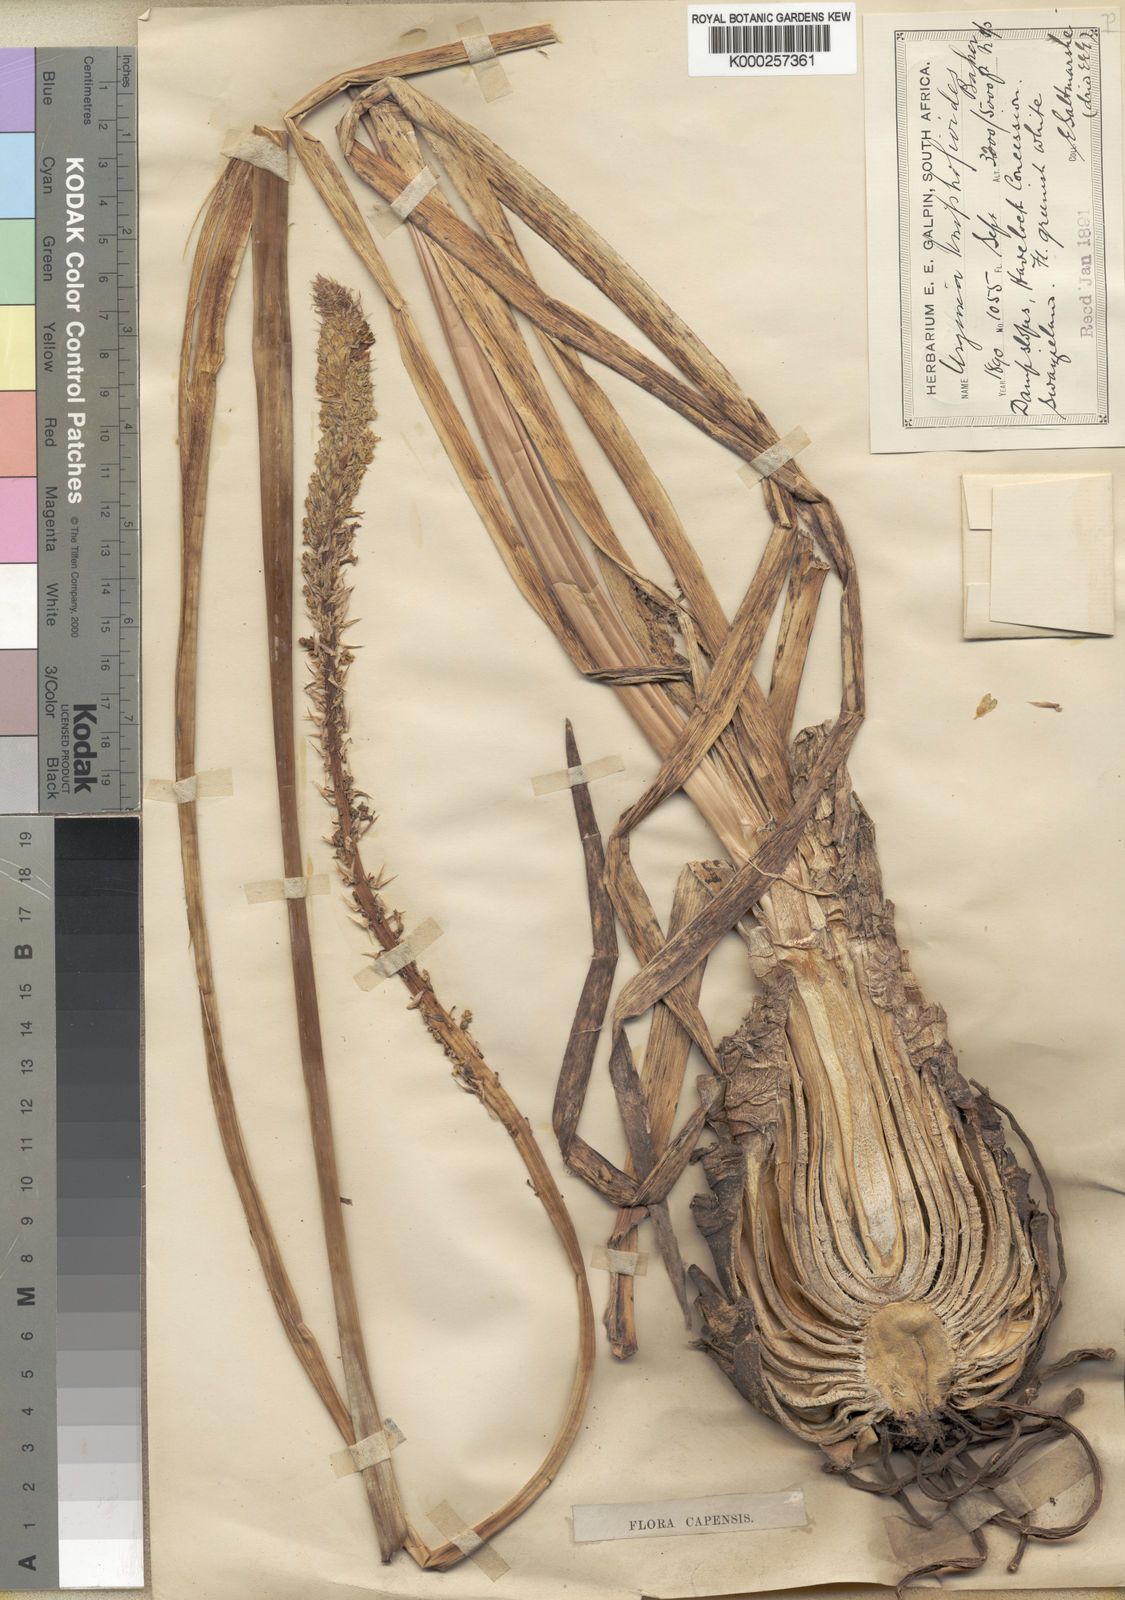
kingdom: Plantae
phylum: Tracheophyta
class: Liliopsida
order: Asparagales
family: Asparagaceae
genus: Drimia
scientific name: Drimia kniphofioides
